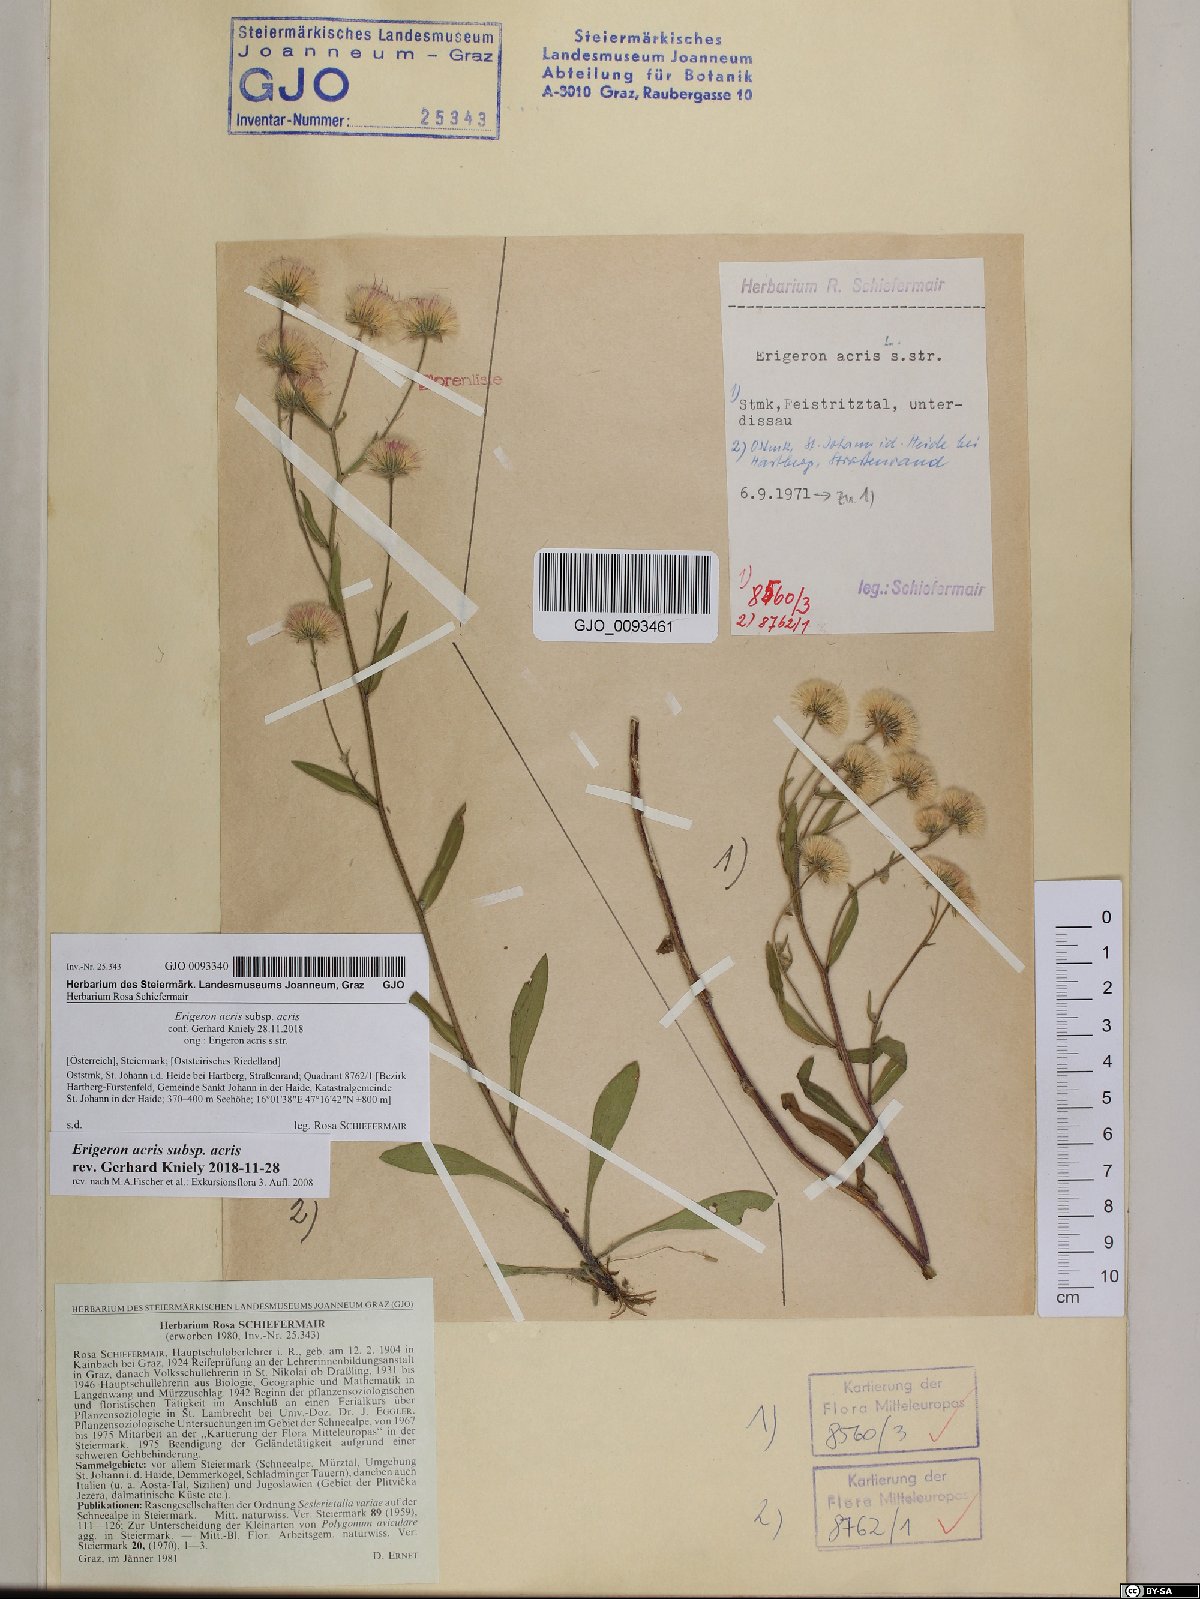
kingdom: Plantae
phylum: Tracheophyta
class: Magnoliopsida
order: Asterales
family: Asteraceae
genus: Erigeron
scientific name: Erigeron acris
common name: Blue fleabane
